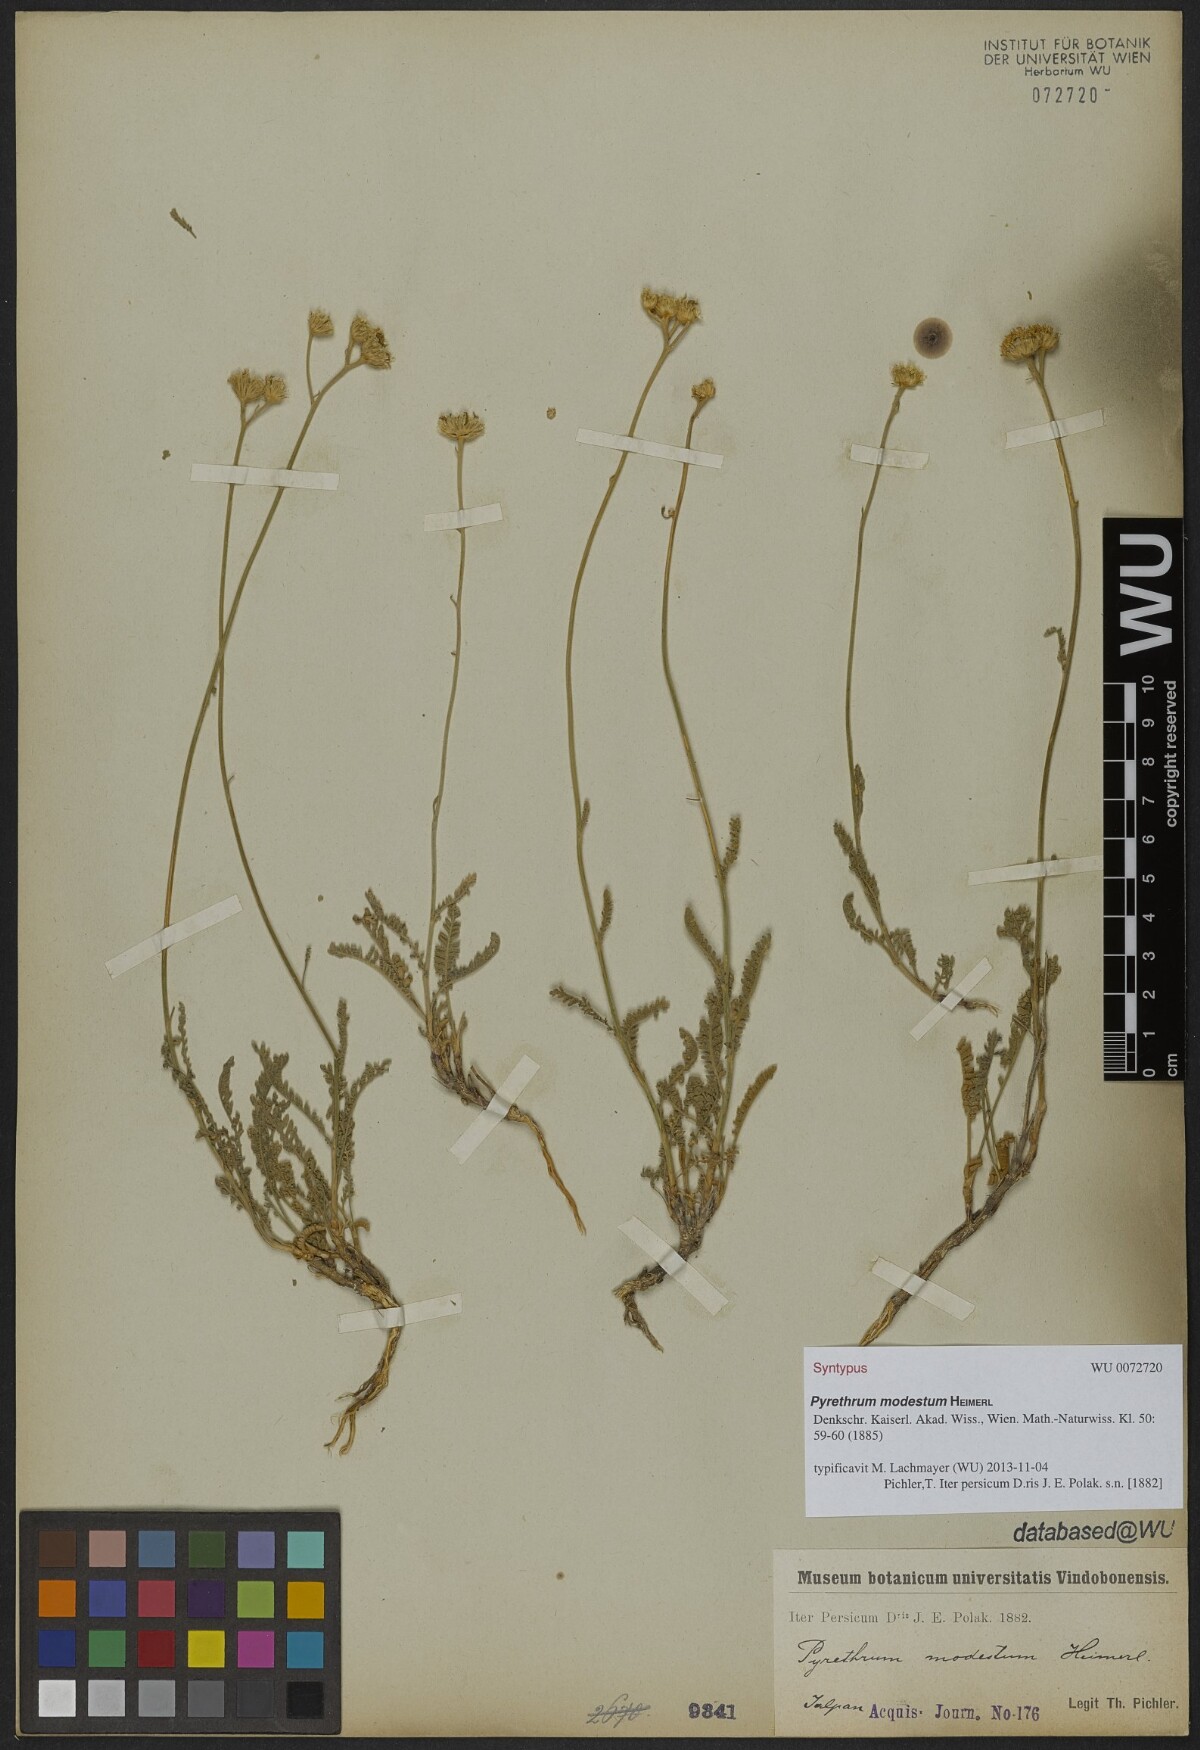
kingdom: Plantae
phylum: Tracheophyta
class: Magnoliopsida
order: Asterales
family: Asteraceae
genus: Tanacetum
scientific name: Tanacetum canescens
